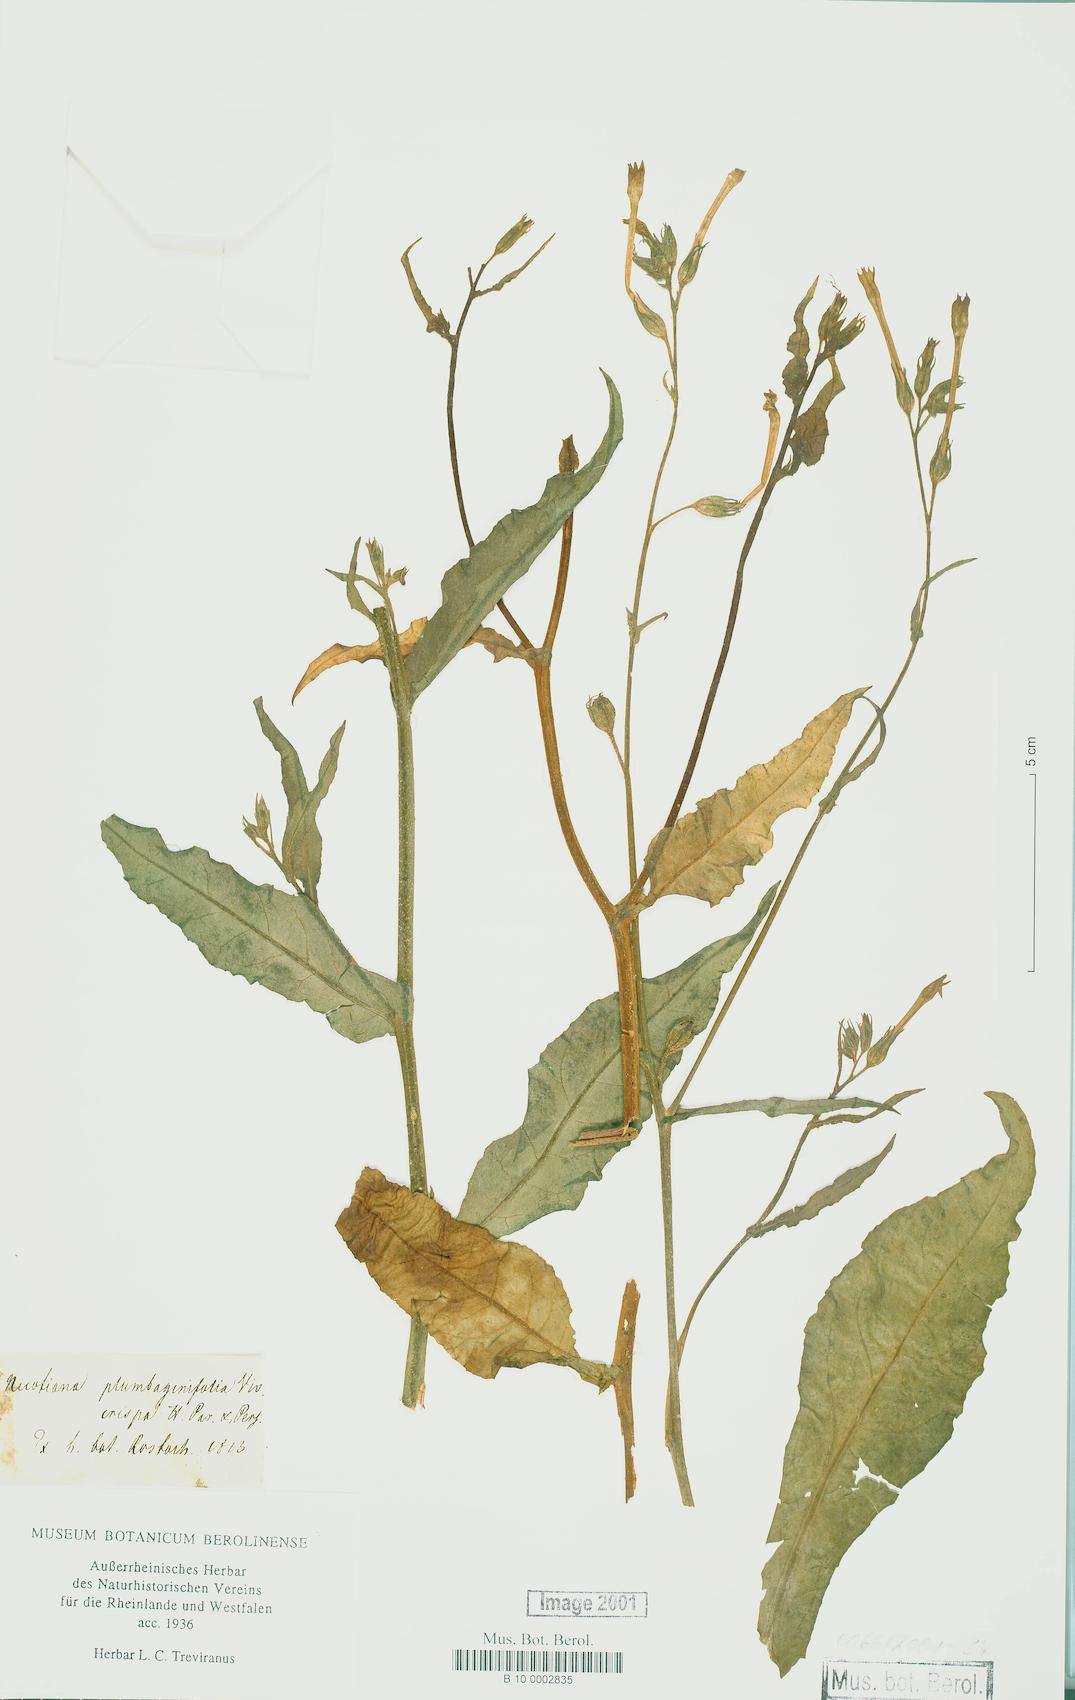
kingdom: Plantae
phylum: Tracheophyta
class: Magnoliopsida
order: Solanales
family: Solanaceae
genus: Nicotiana
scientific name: Nicotiana plumbaginifolia
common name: Tex-mex tobacco
